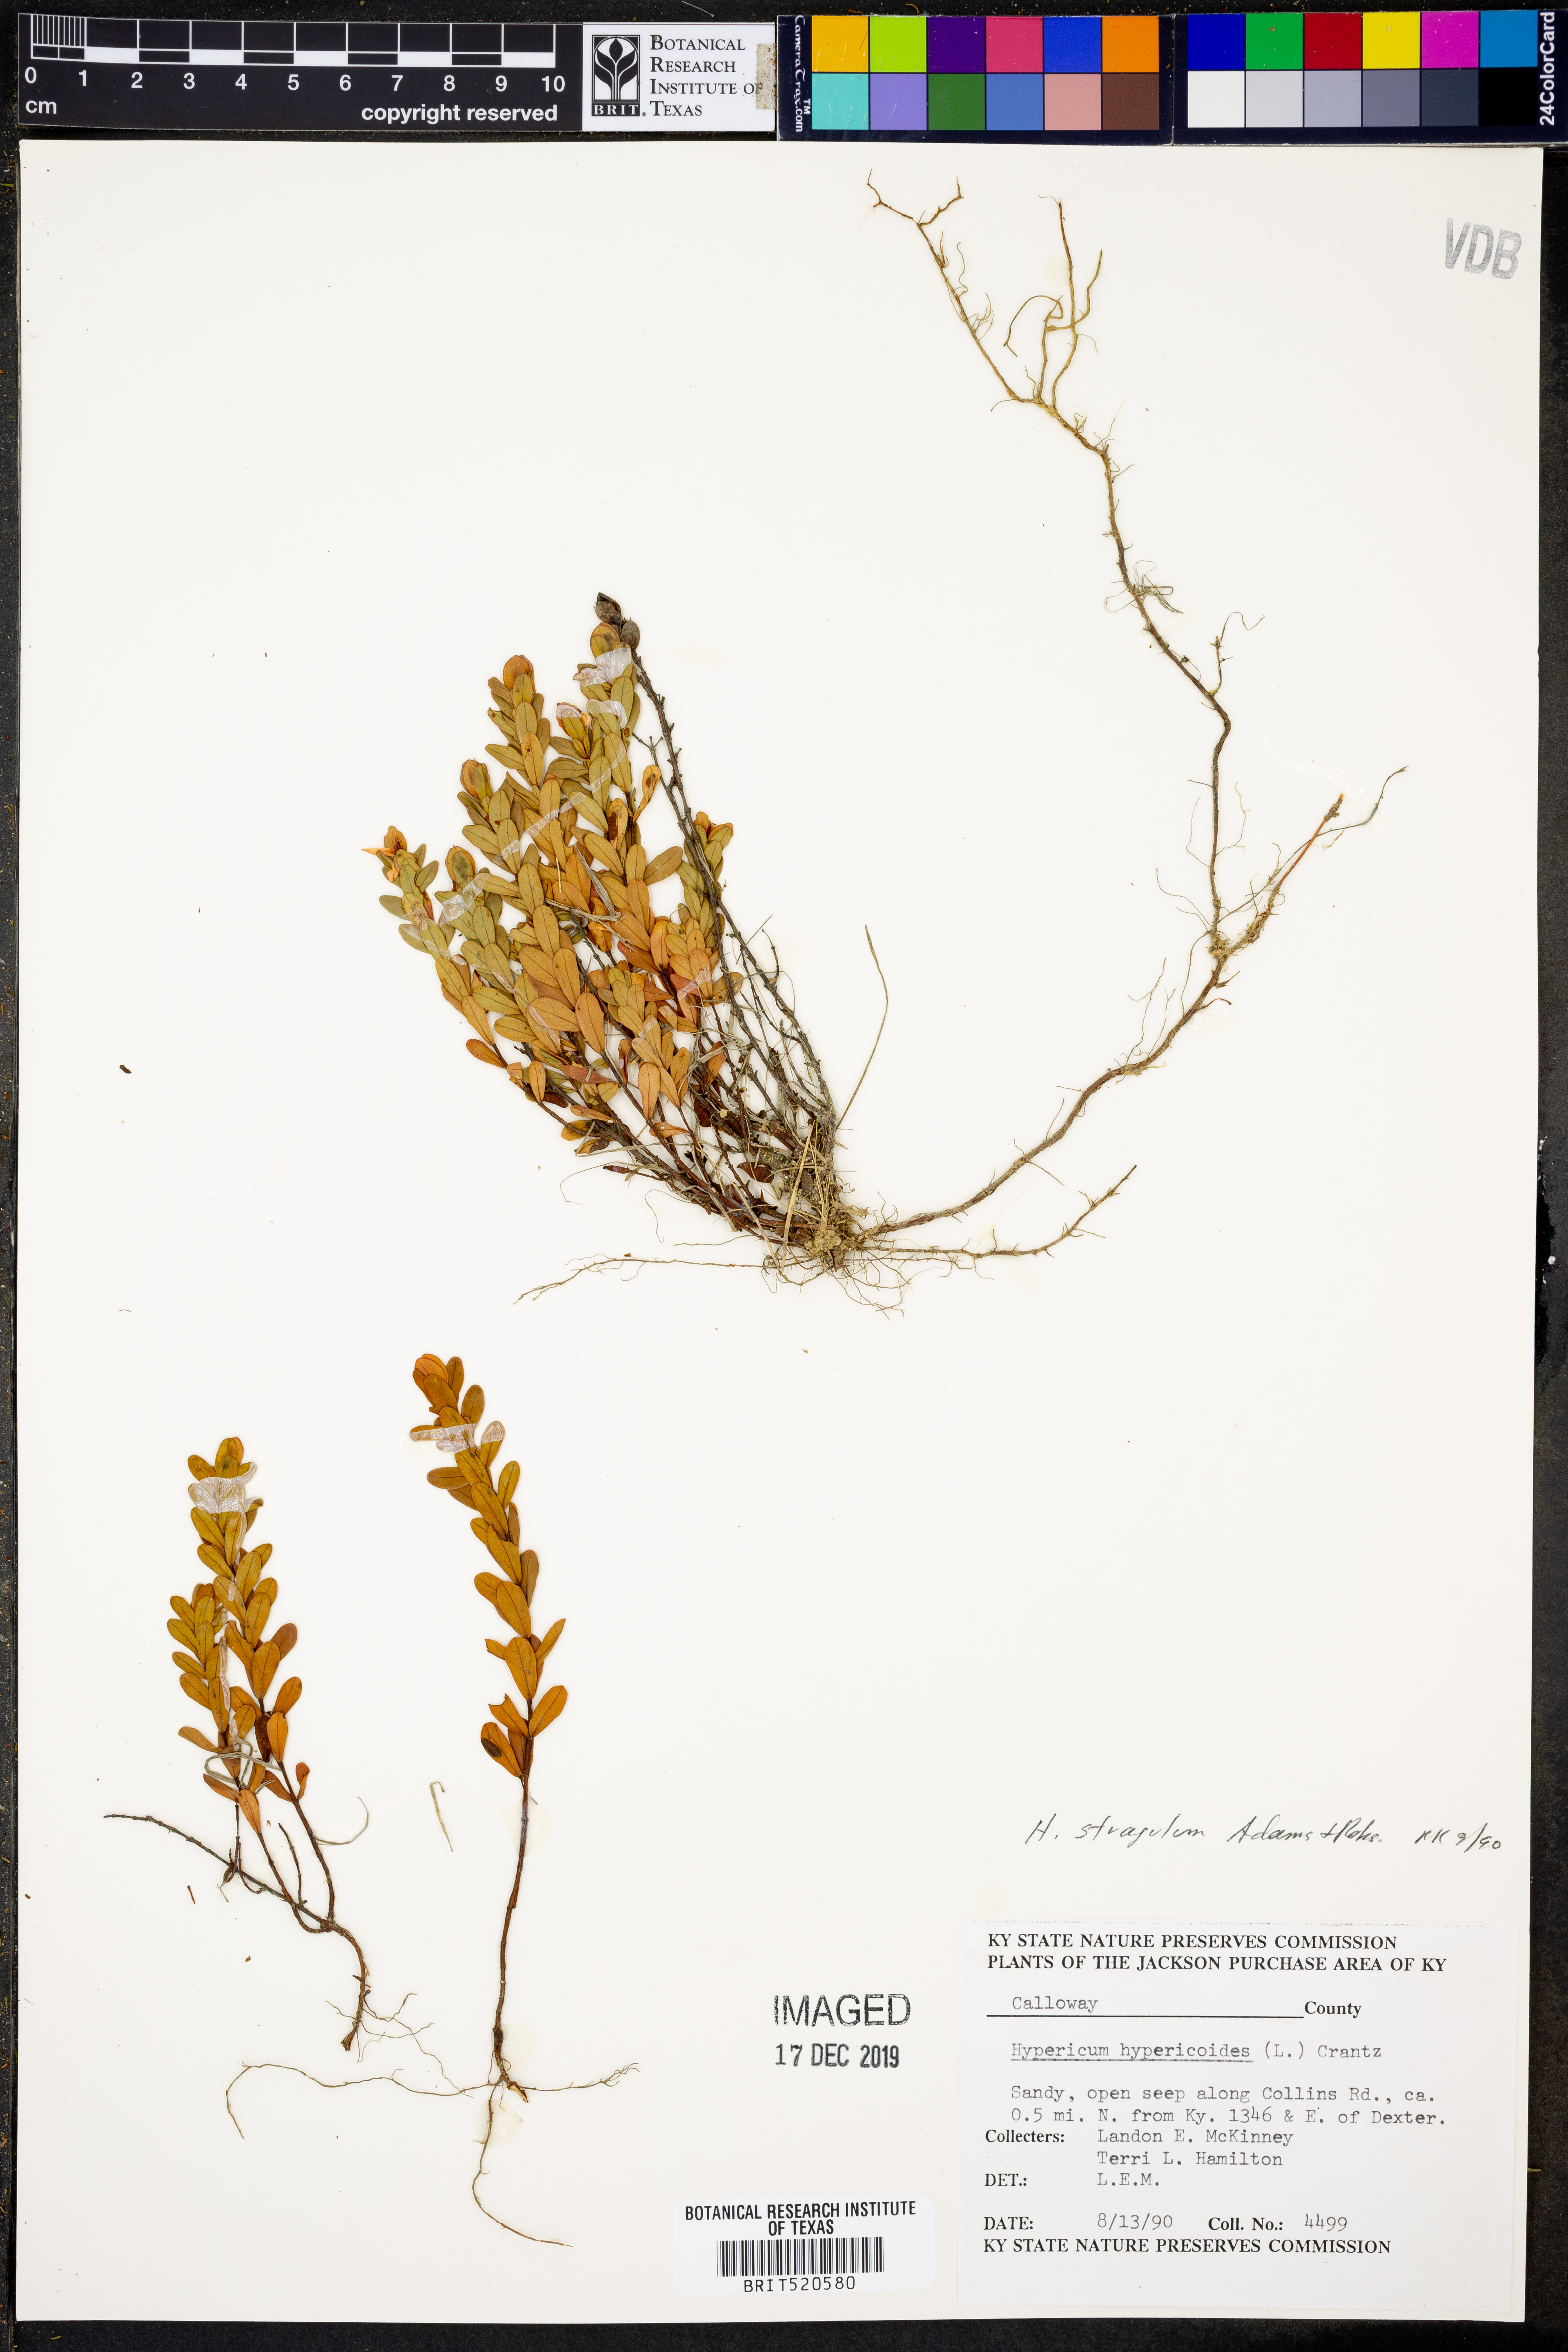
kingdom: Plantae
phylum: Tracheophyta
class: Magnoliopsida
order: Malpighiales
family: Hypericaceae
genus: Hypericum
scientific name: Hypericum hypericoides
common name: St. andrew's cross
